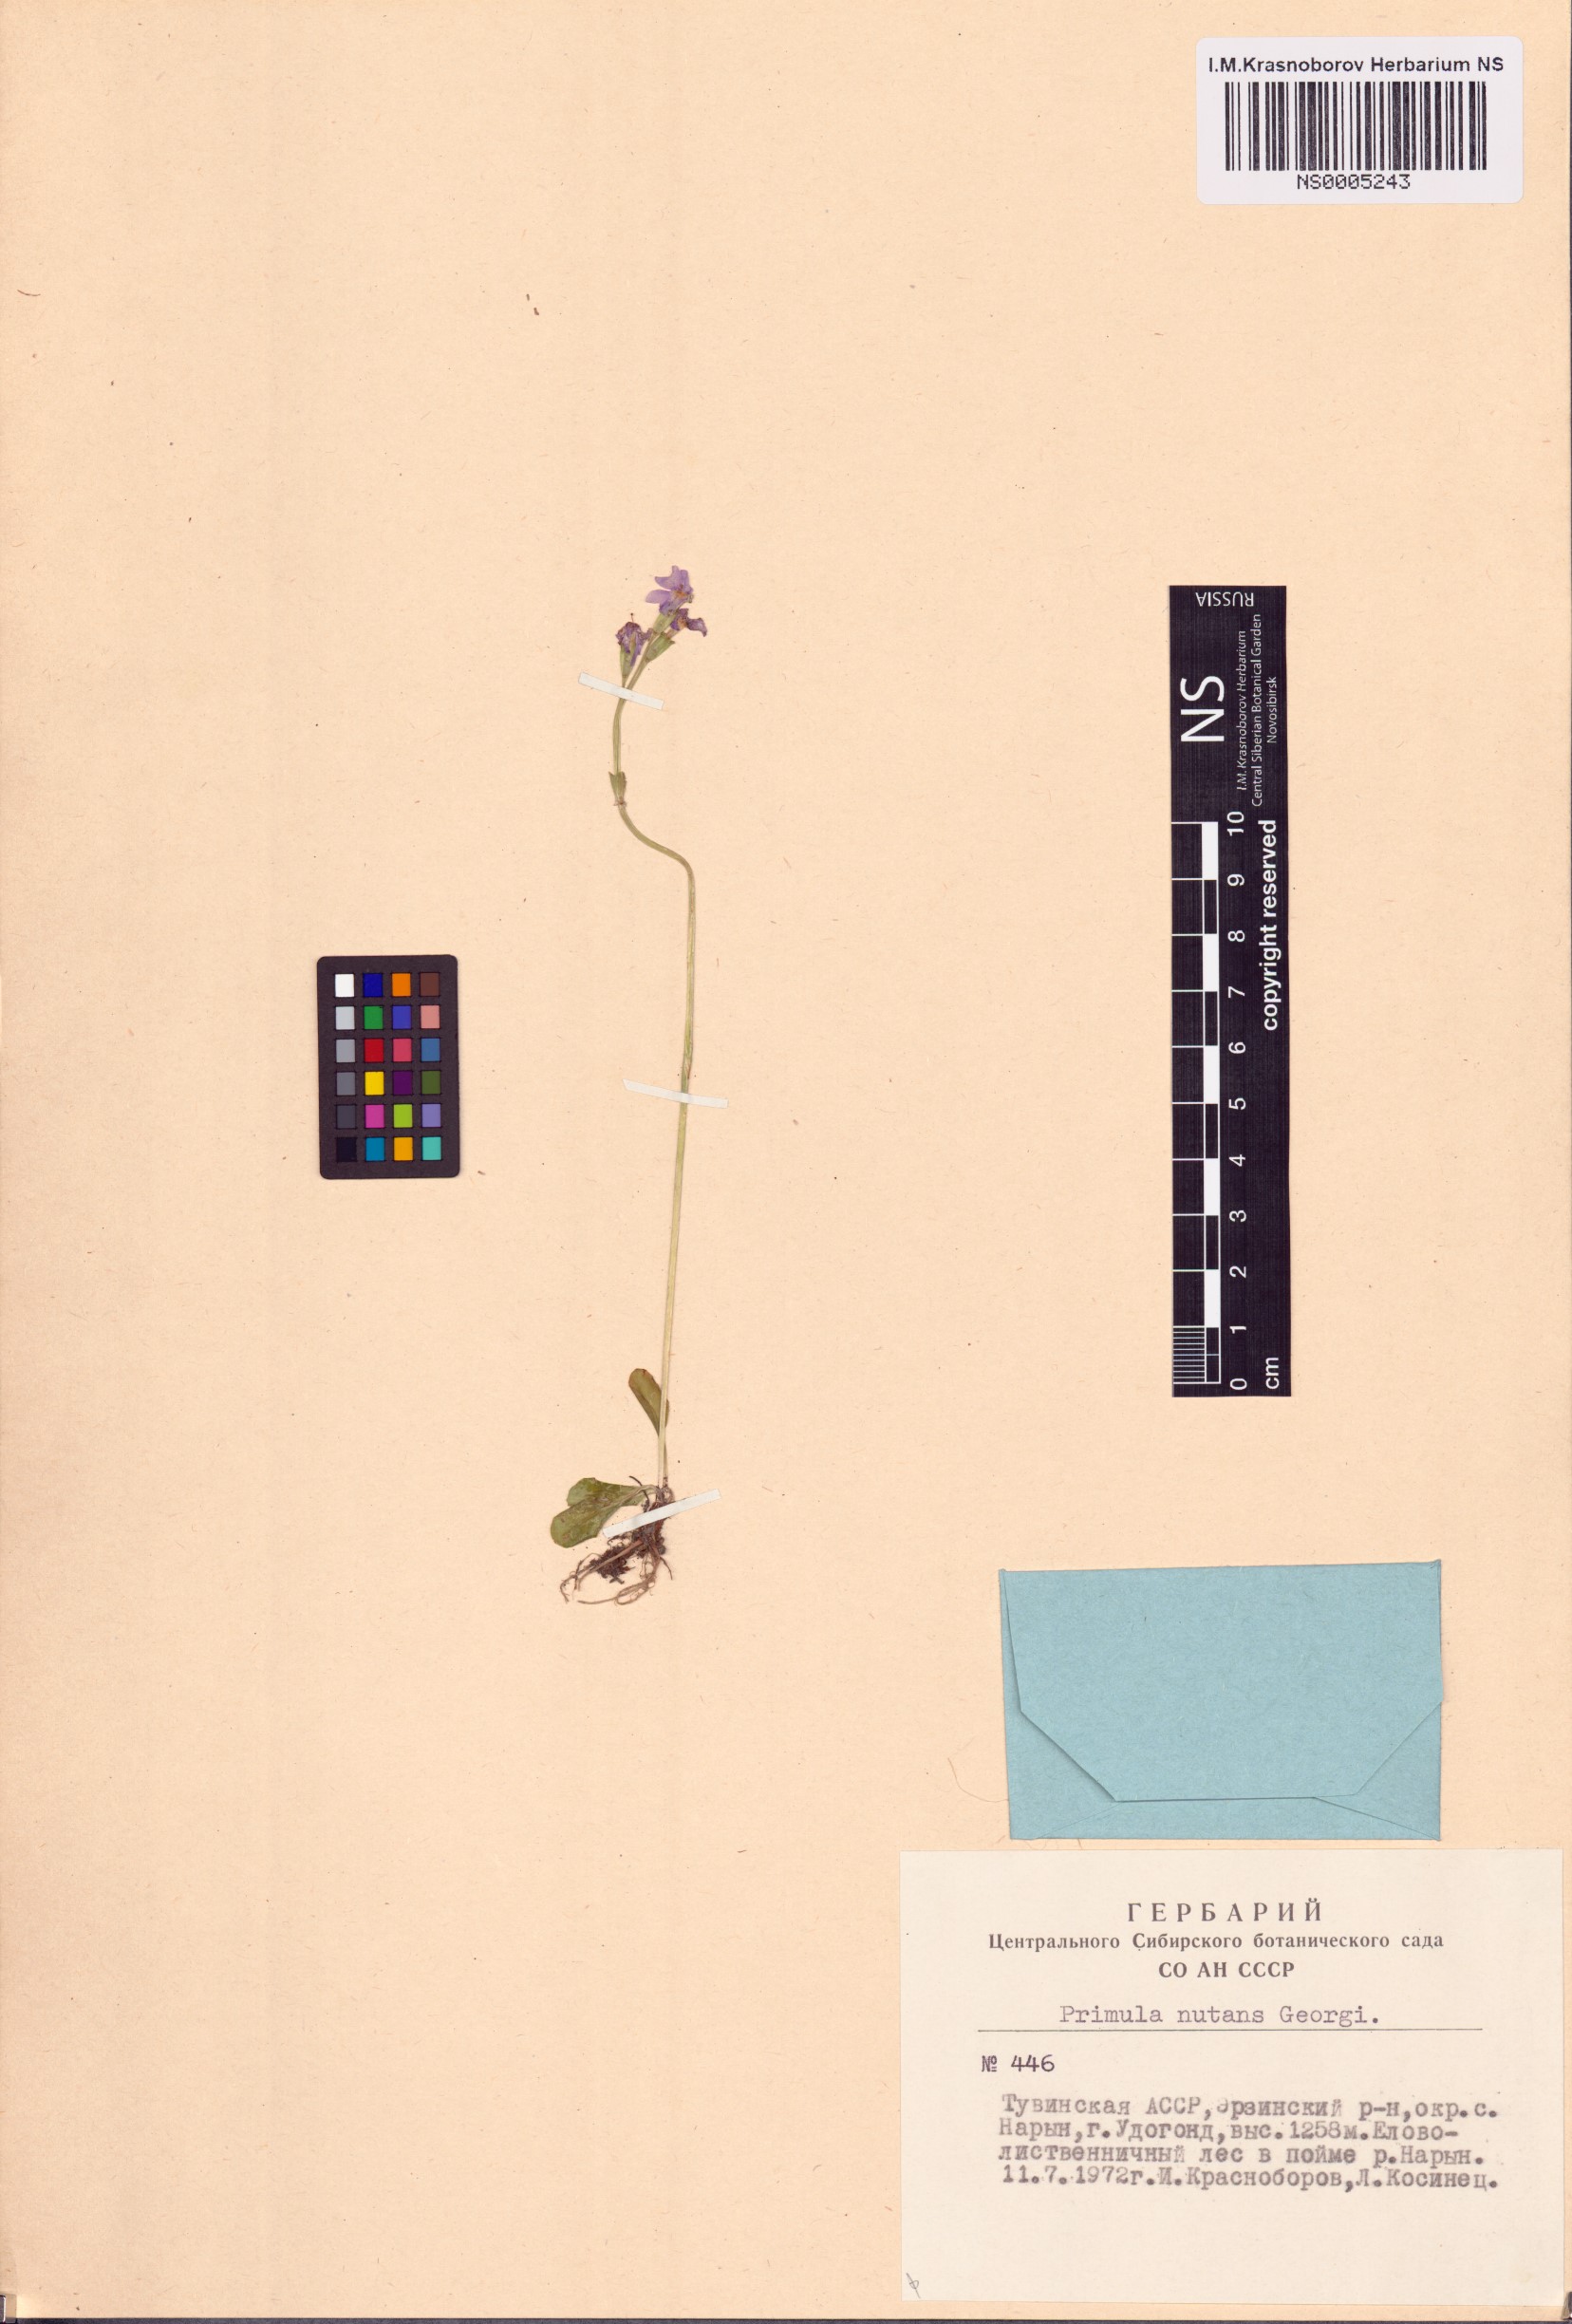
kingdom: Plantae
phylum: Tracheophyta
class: Magnoliopsida
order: Ericales
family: Primulaceae
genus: Primula
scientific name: Primula nutans
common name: Siberian primrose
